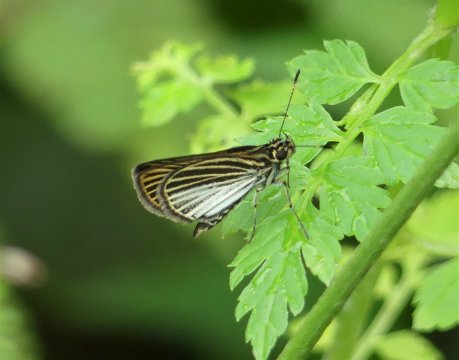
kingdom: Animalia
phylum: Arthropoda
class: Insecta
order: Lepidoptera
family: Hesperiidae
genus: Apaustus
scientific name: Apaustus gracilis
